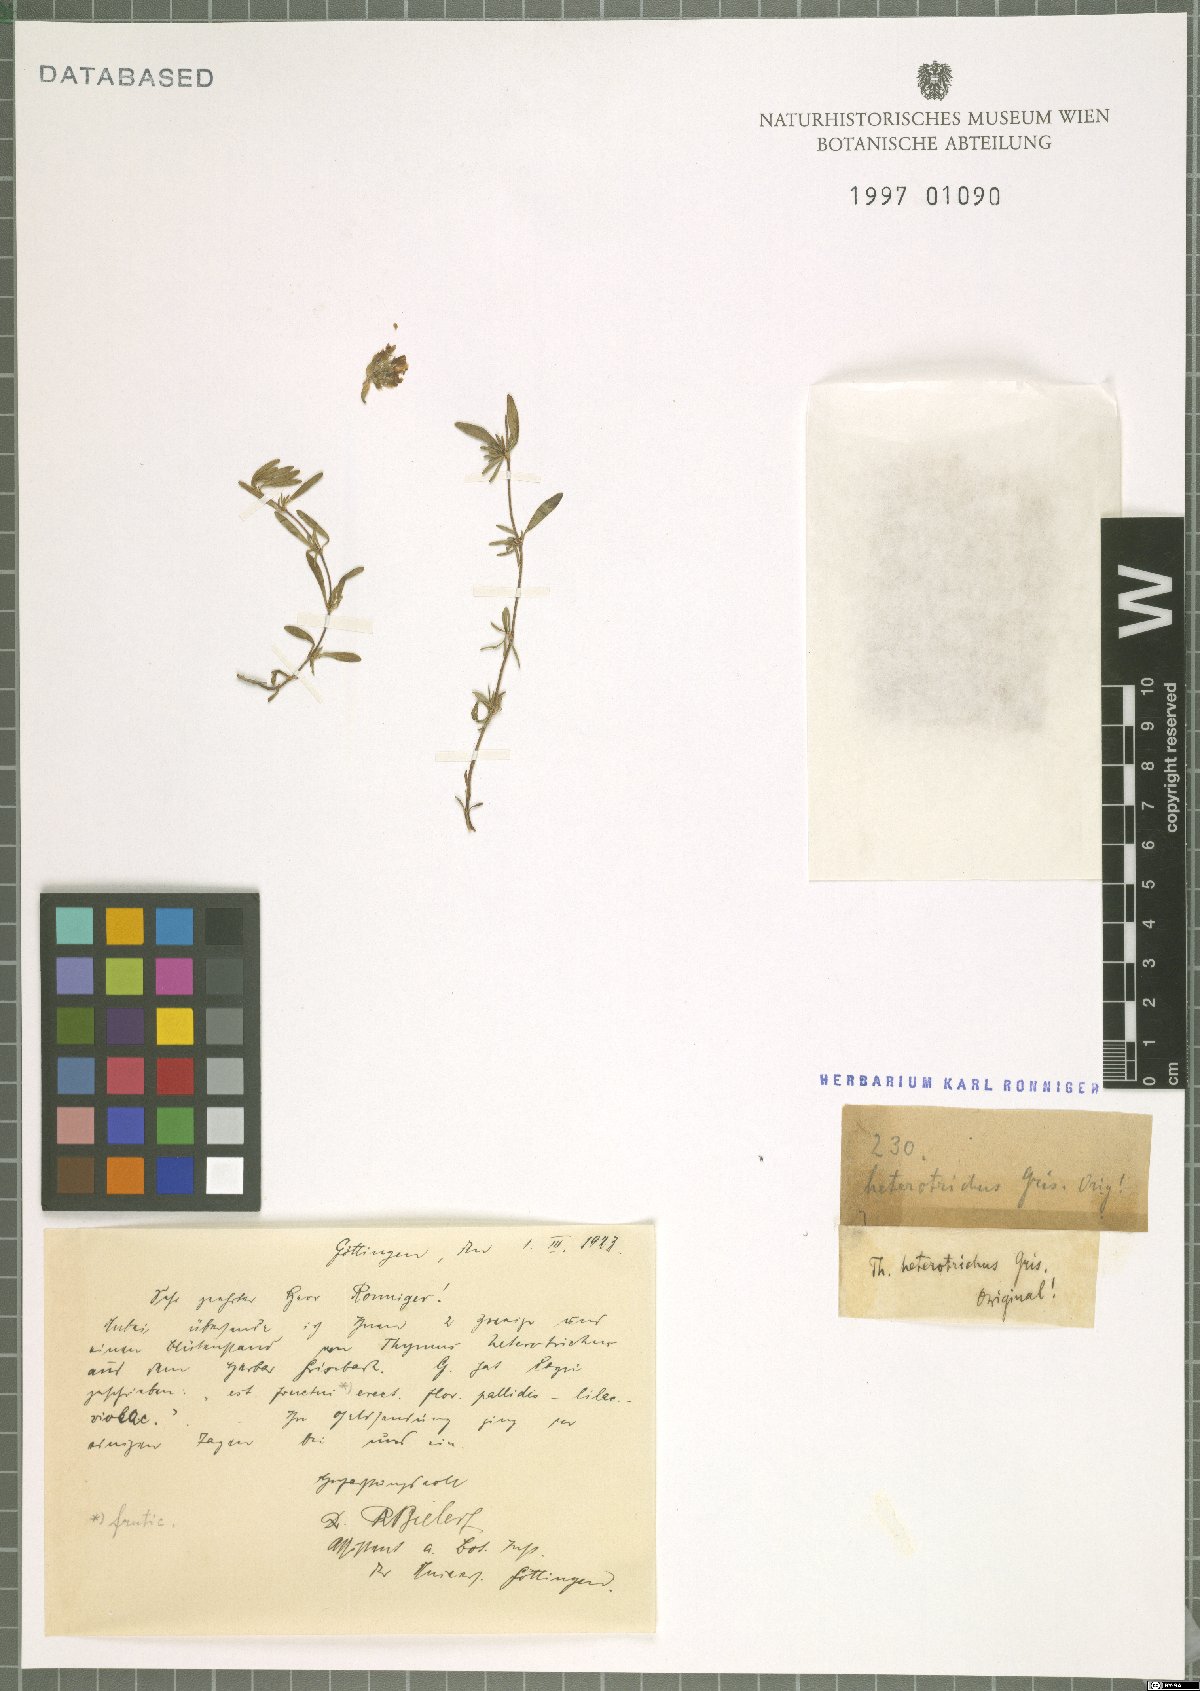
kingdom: Plantae
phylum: Tracheophyta
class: Magnoliopsida
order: Lamiales
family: Lamiaceae
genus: Thymus
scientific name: Thymus sibthorpii
